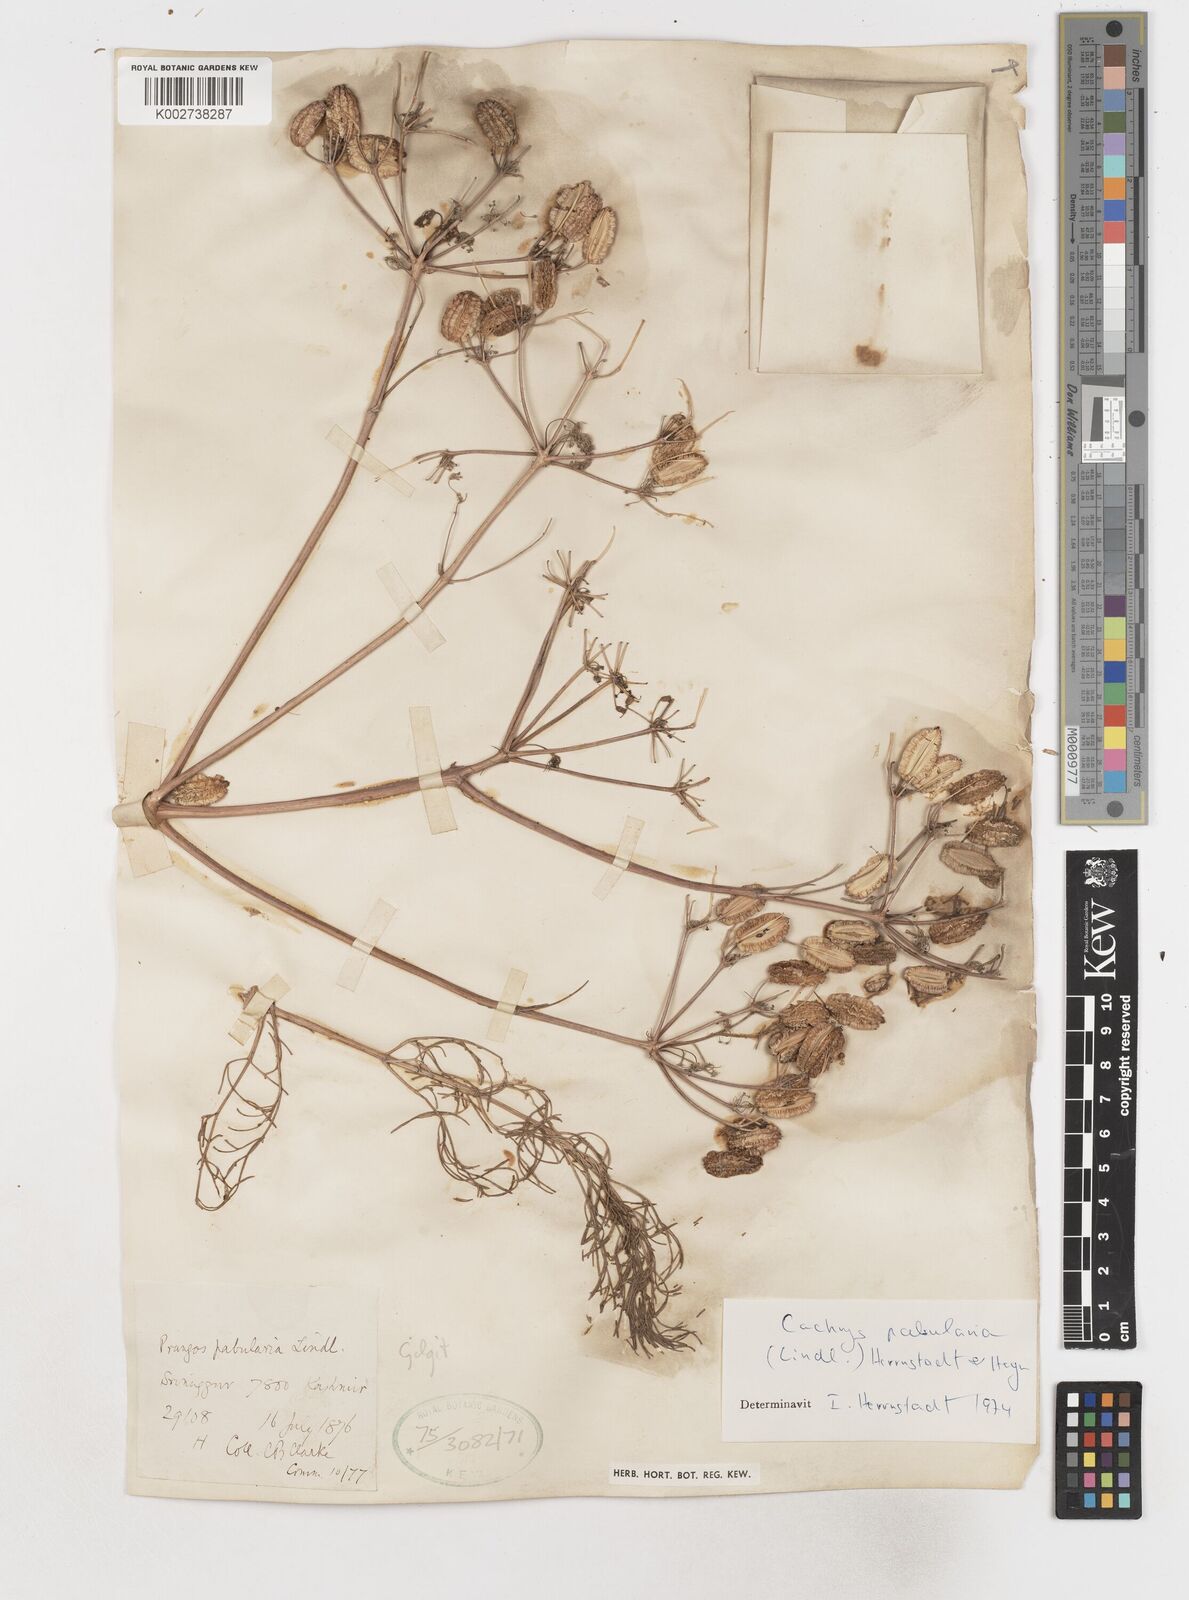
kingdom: Plantae
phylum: Tracheophyta
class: Magnoliopsida
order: Apiales
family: Apiaceae
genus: Prangos
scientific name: Prangos
